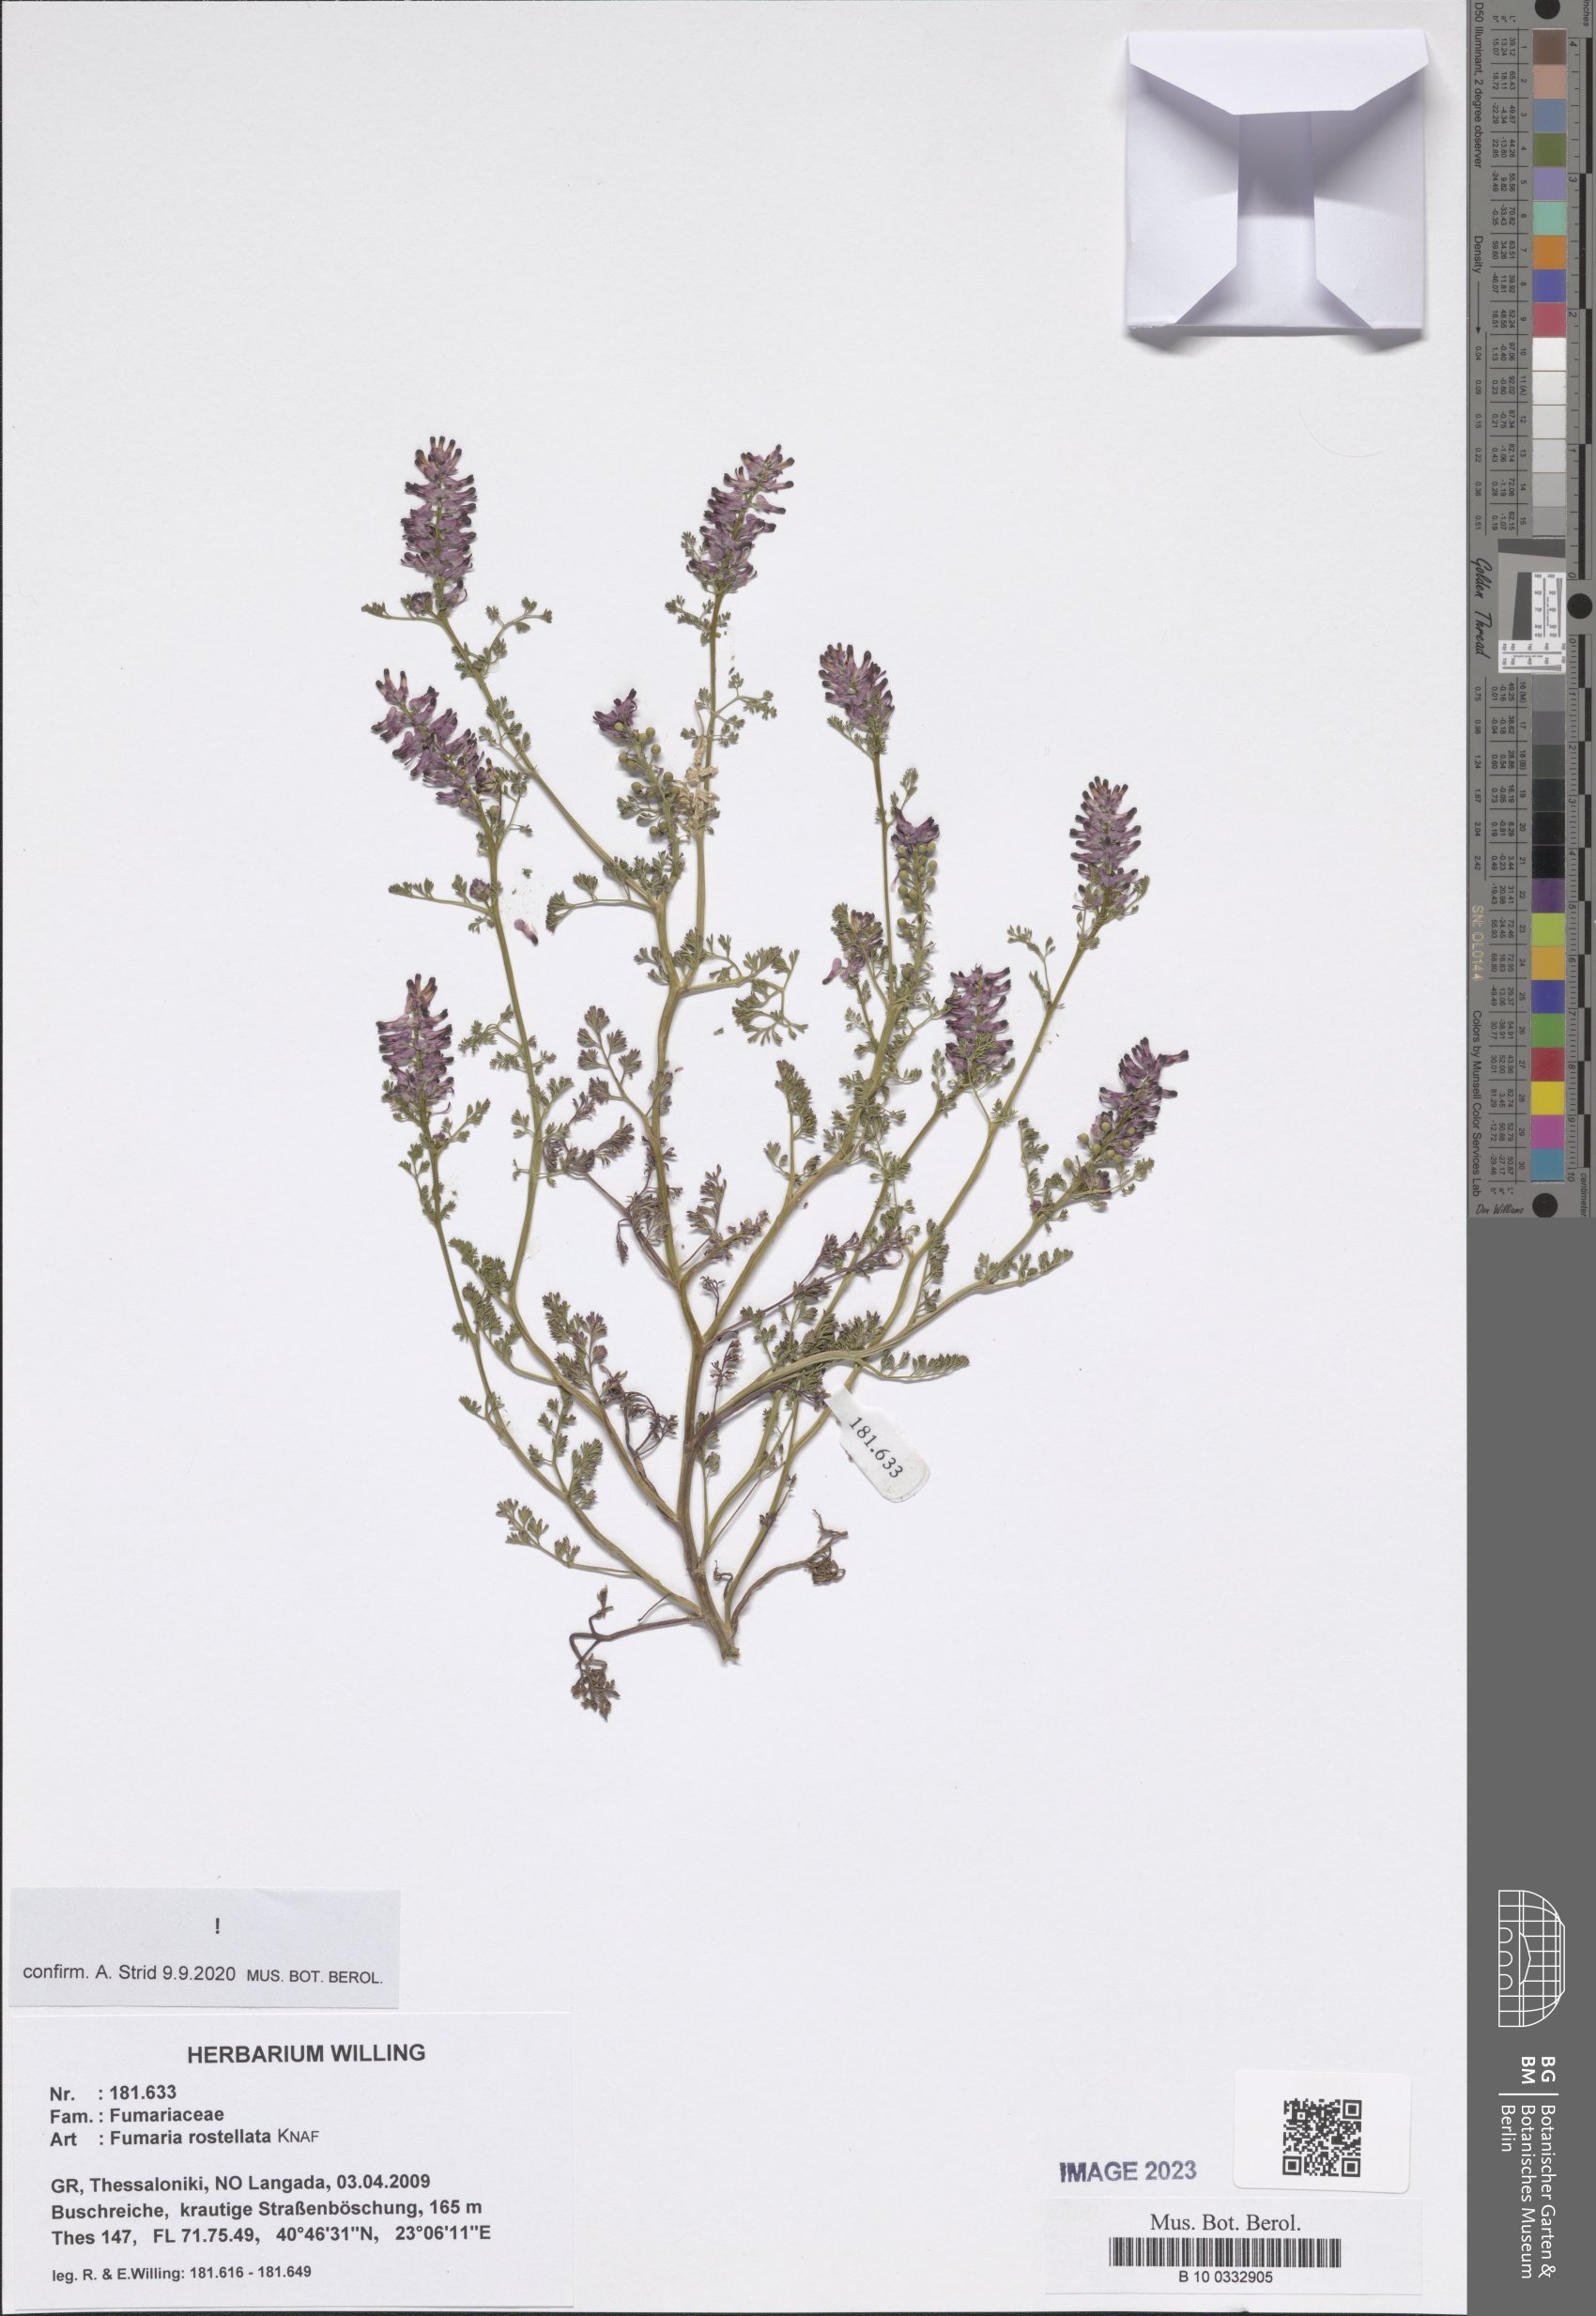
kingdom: Plantae
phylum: Tracheophyta
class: Magnoliopsida
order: Ranunculales
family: Papaveraceae
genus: Fumaria
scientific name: Fumaria rostellata
